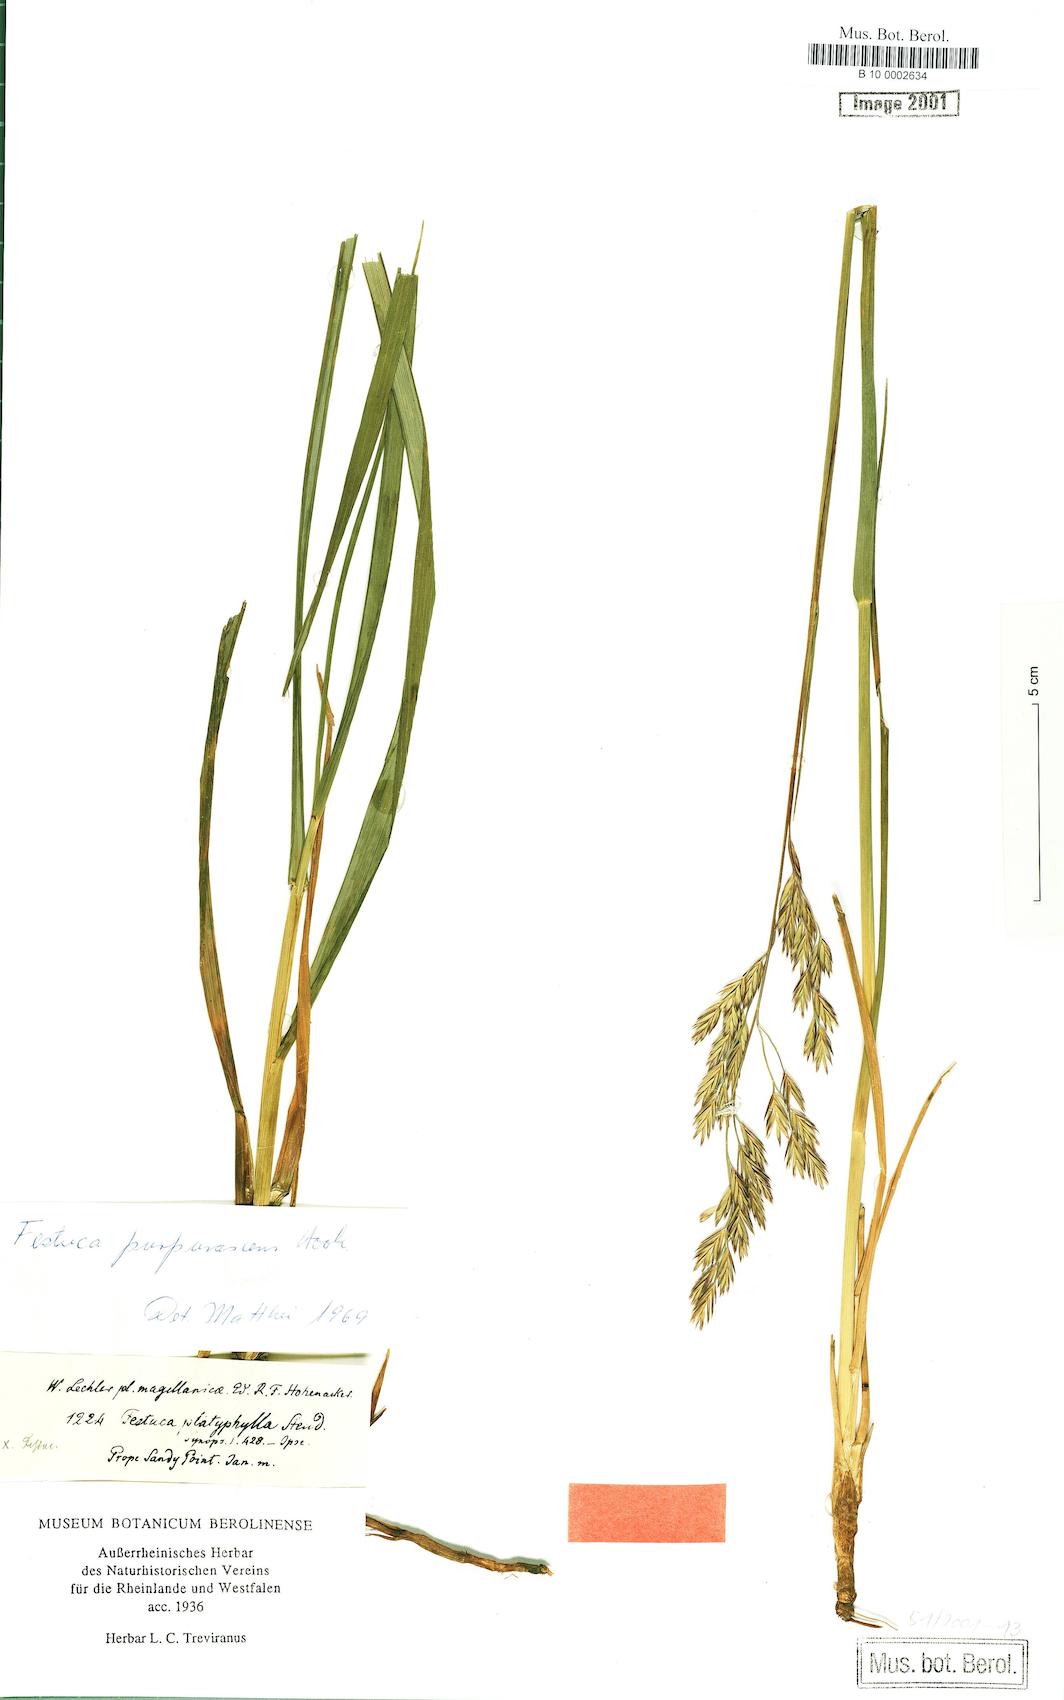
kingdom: Plantae
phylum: Tracheophyta
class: Liliopsida
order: Poales
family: Poaceae
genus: Festuca
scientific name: Festuca purpurascens
